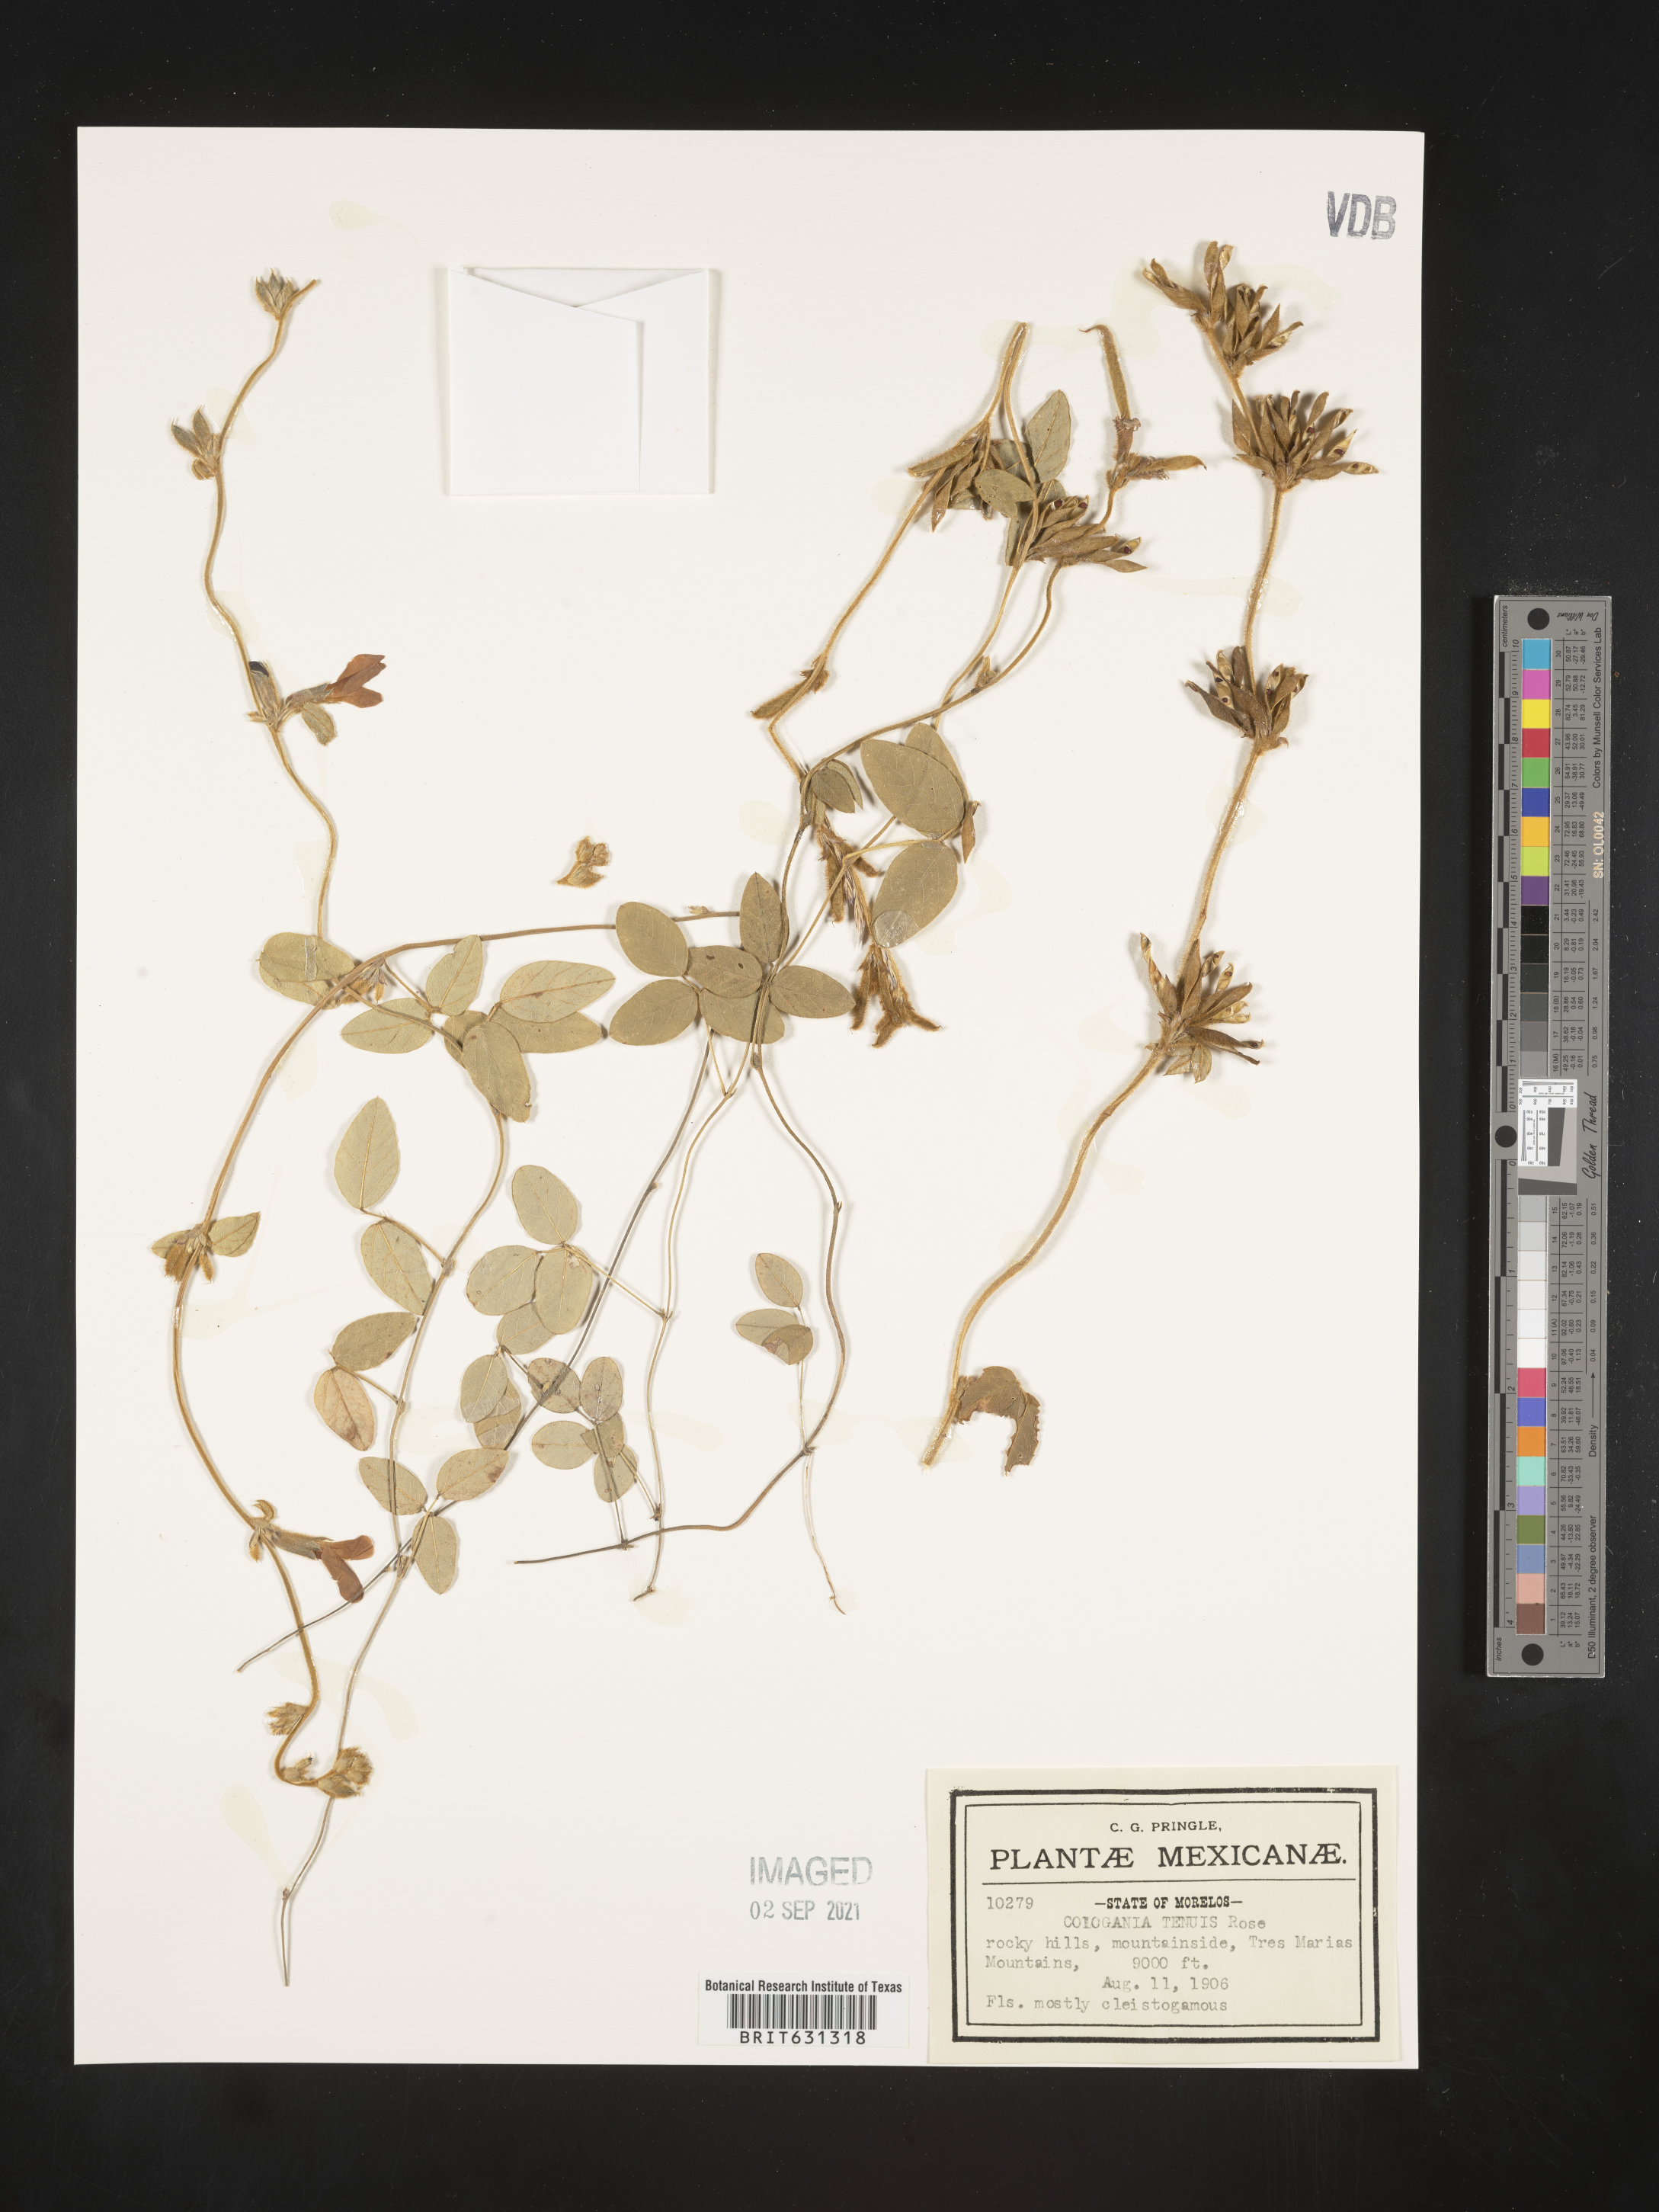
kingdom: Plantae
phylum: Tracheophyta
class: Magnoliopsida
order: Fabales
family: Fabaceae
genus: Cologania
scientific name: Cologania broussonetii
